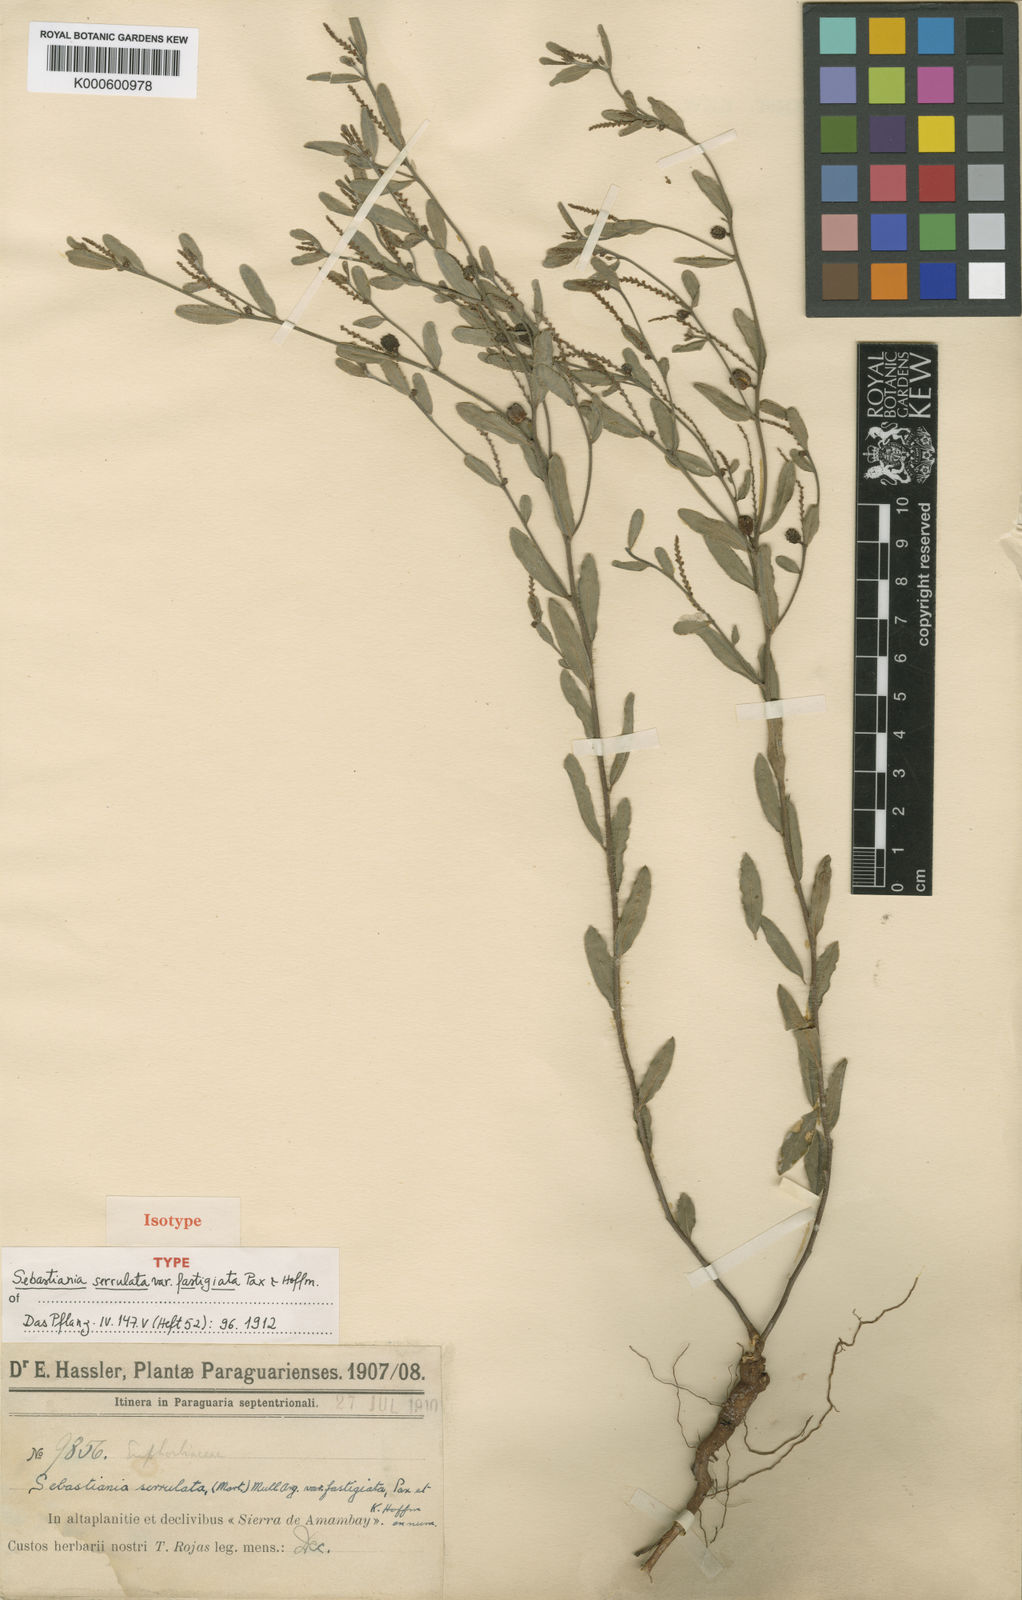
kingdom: Plantae
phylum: Tracheophyta
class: Magnoliopsida
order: Malpighiales
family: Euphorbiaceae
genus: Sebastiania
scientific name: Sebastiania
